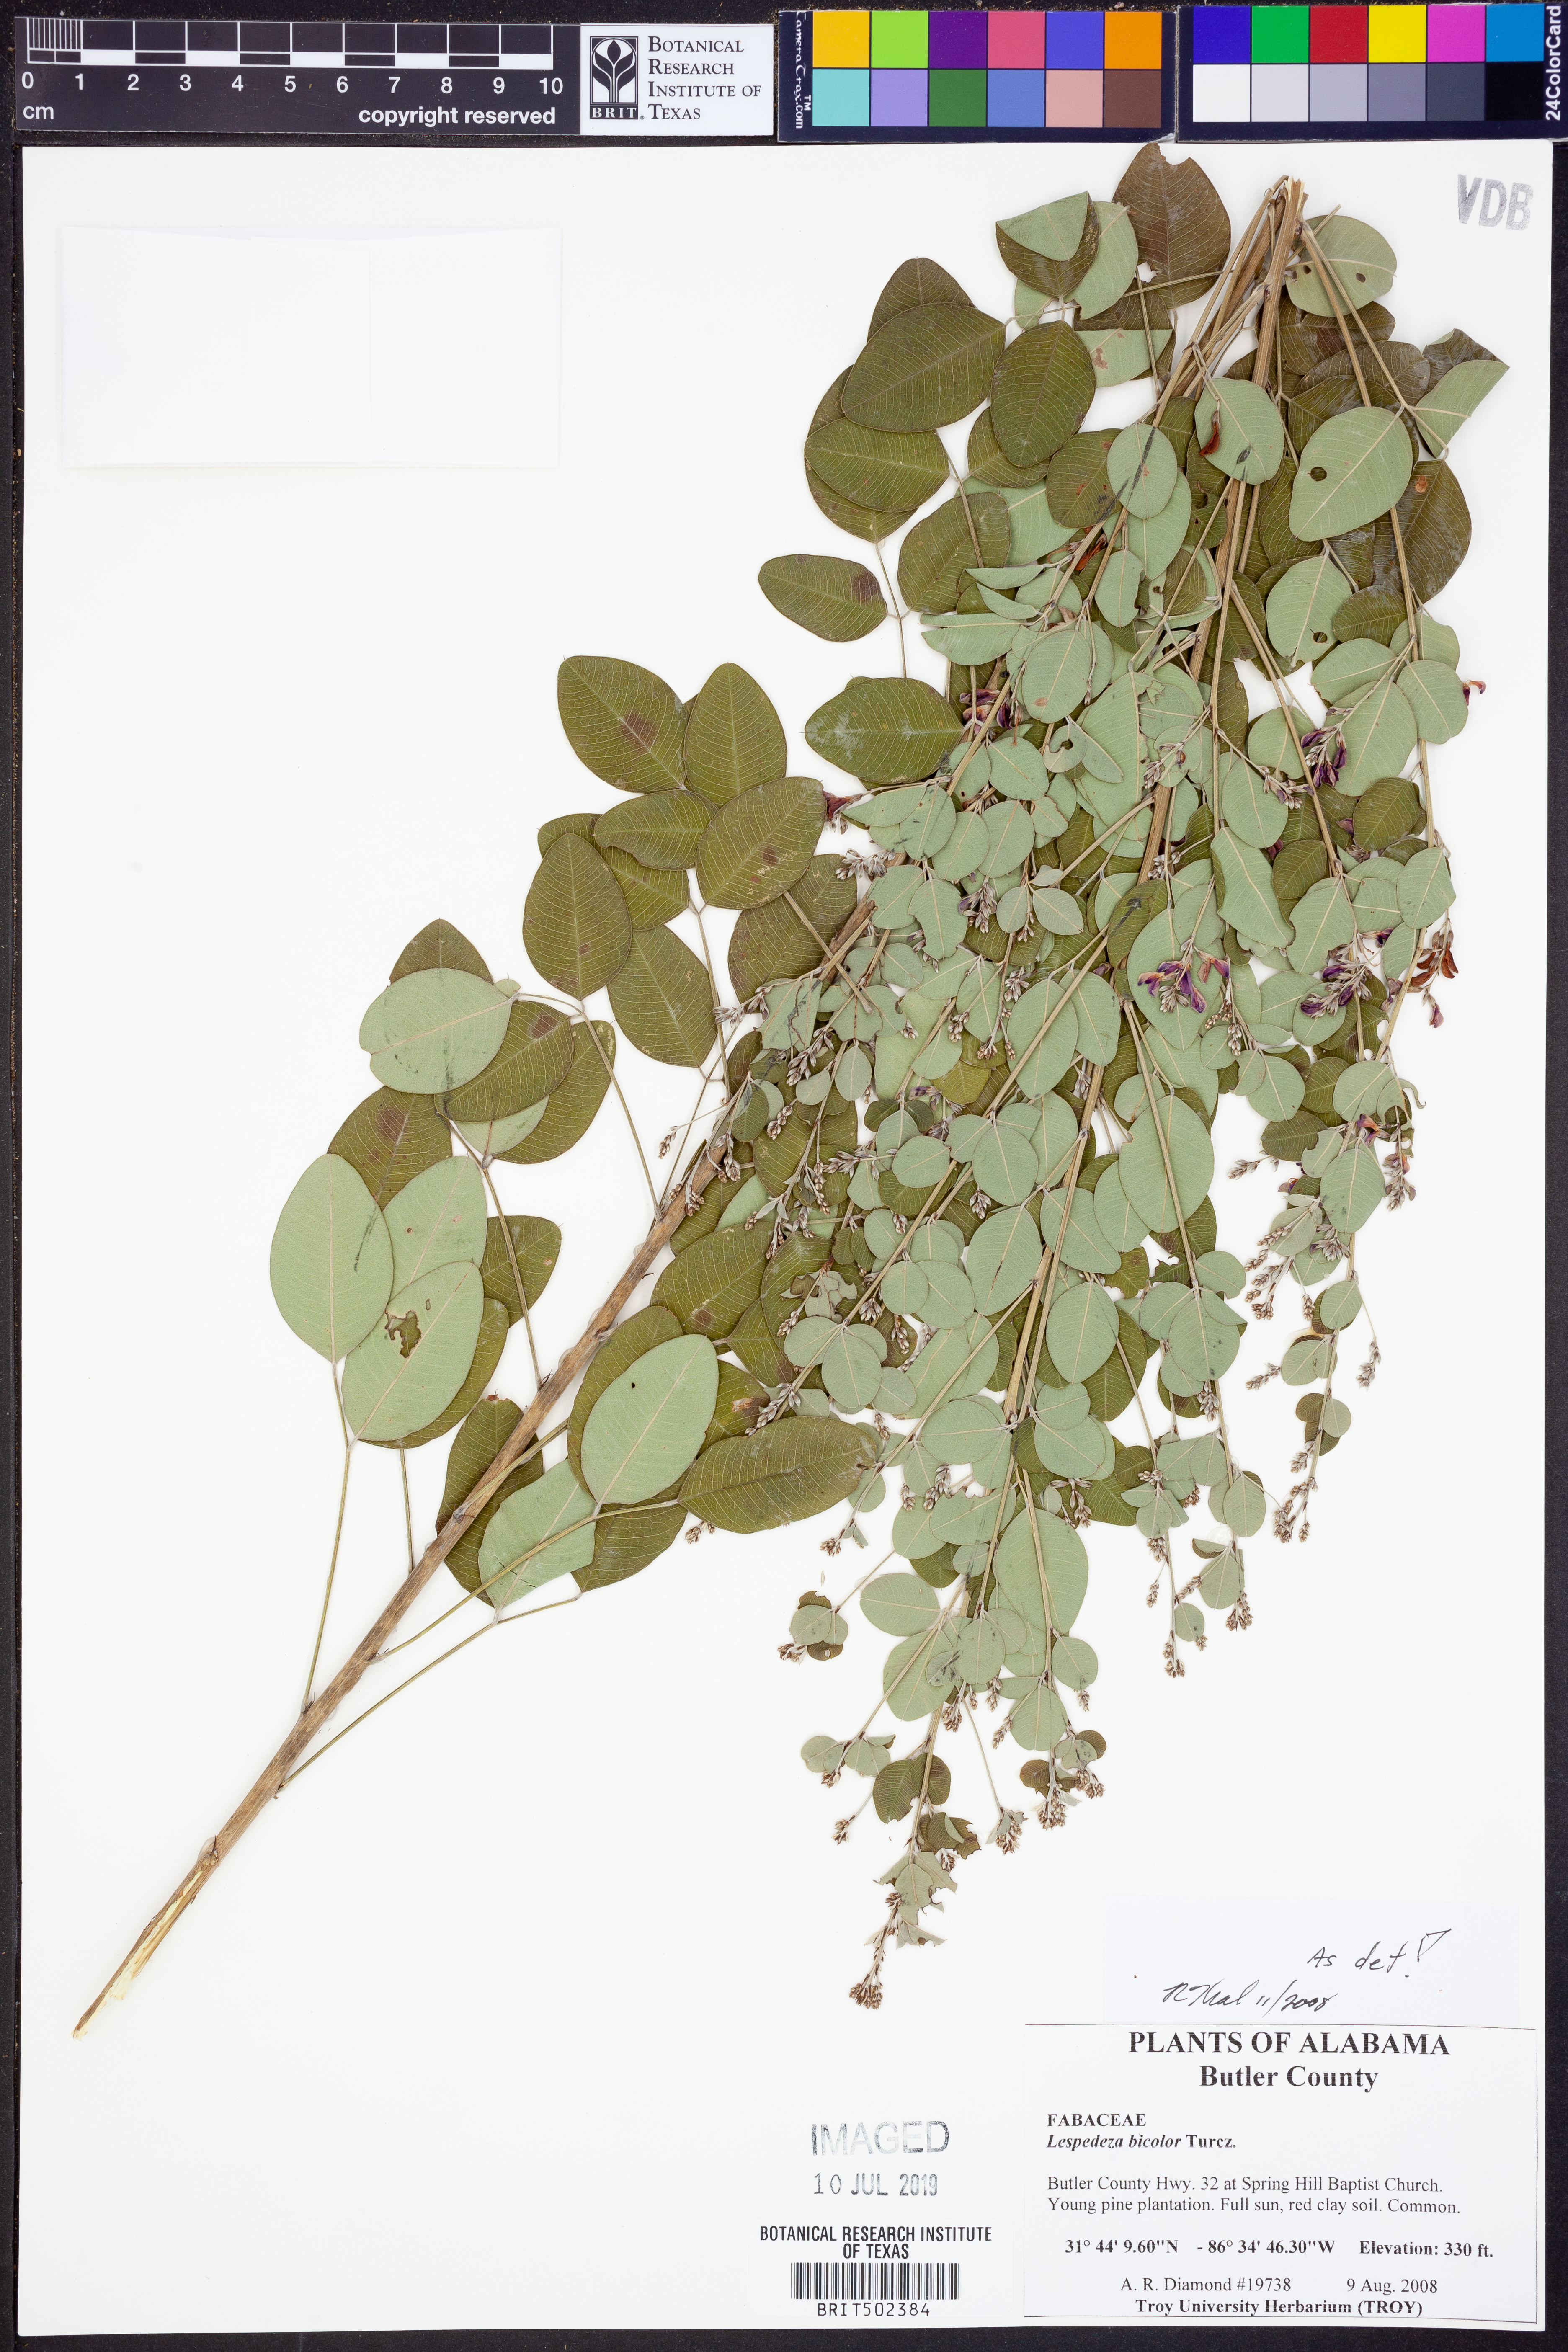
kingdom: Plantae
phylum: Tracheophyta
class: Magnoliopsida
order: Fabales
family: Fabaceae
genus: Lespedeza
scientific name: Lespedeza bicolor
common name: Shrub lespedeza
